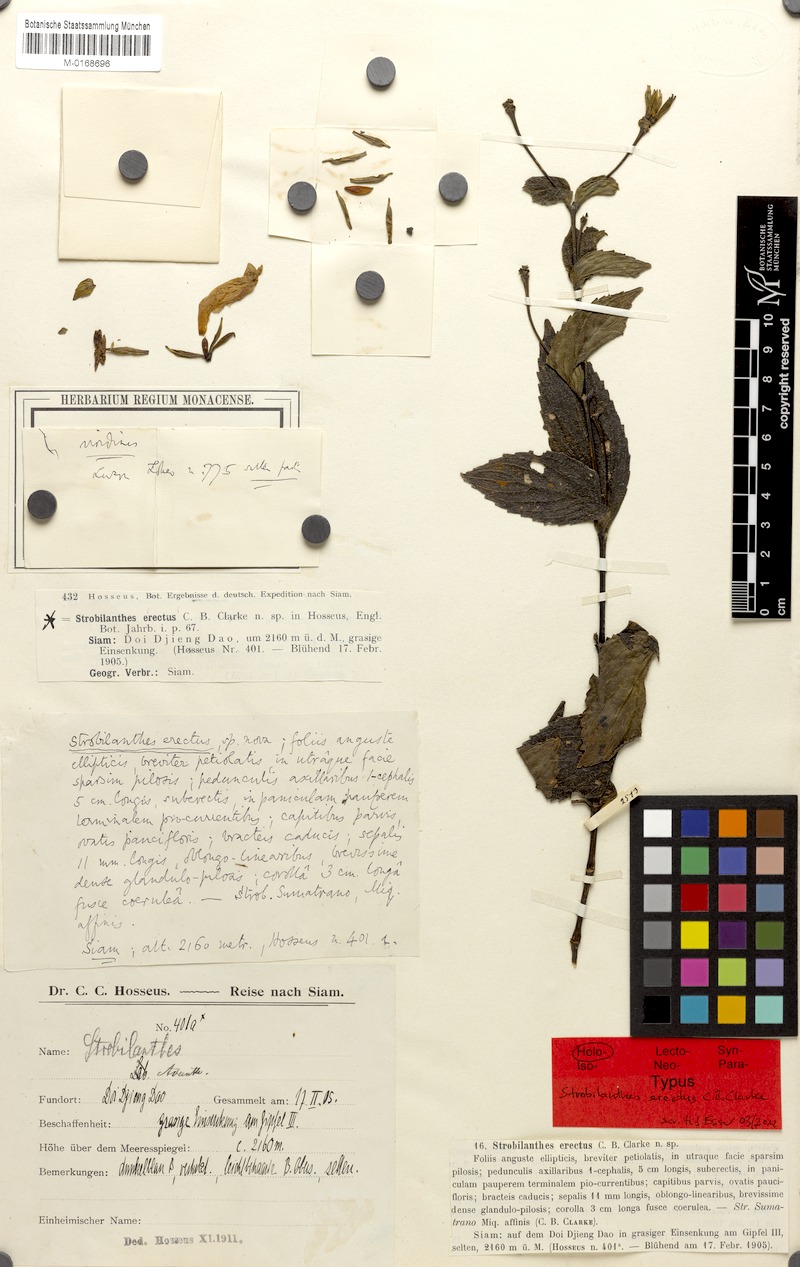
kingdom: Plantae
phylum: Tracheophyta
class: Magnoliopsida
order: Lamiales
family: Acanthaceae
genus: Strobilanthes
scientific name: Strobilanthes erecta
